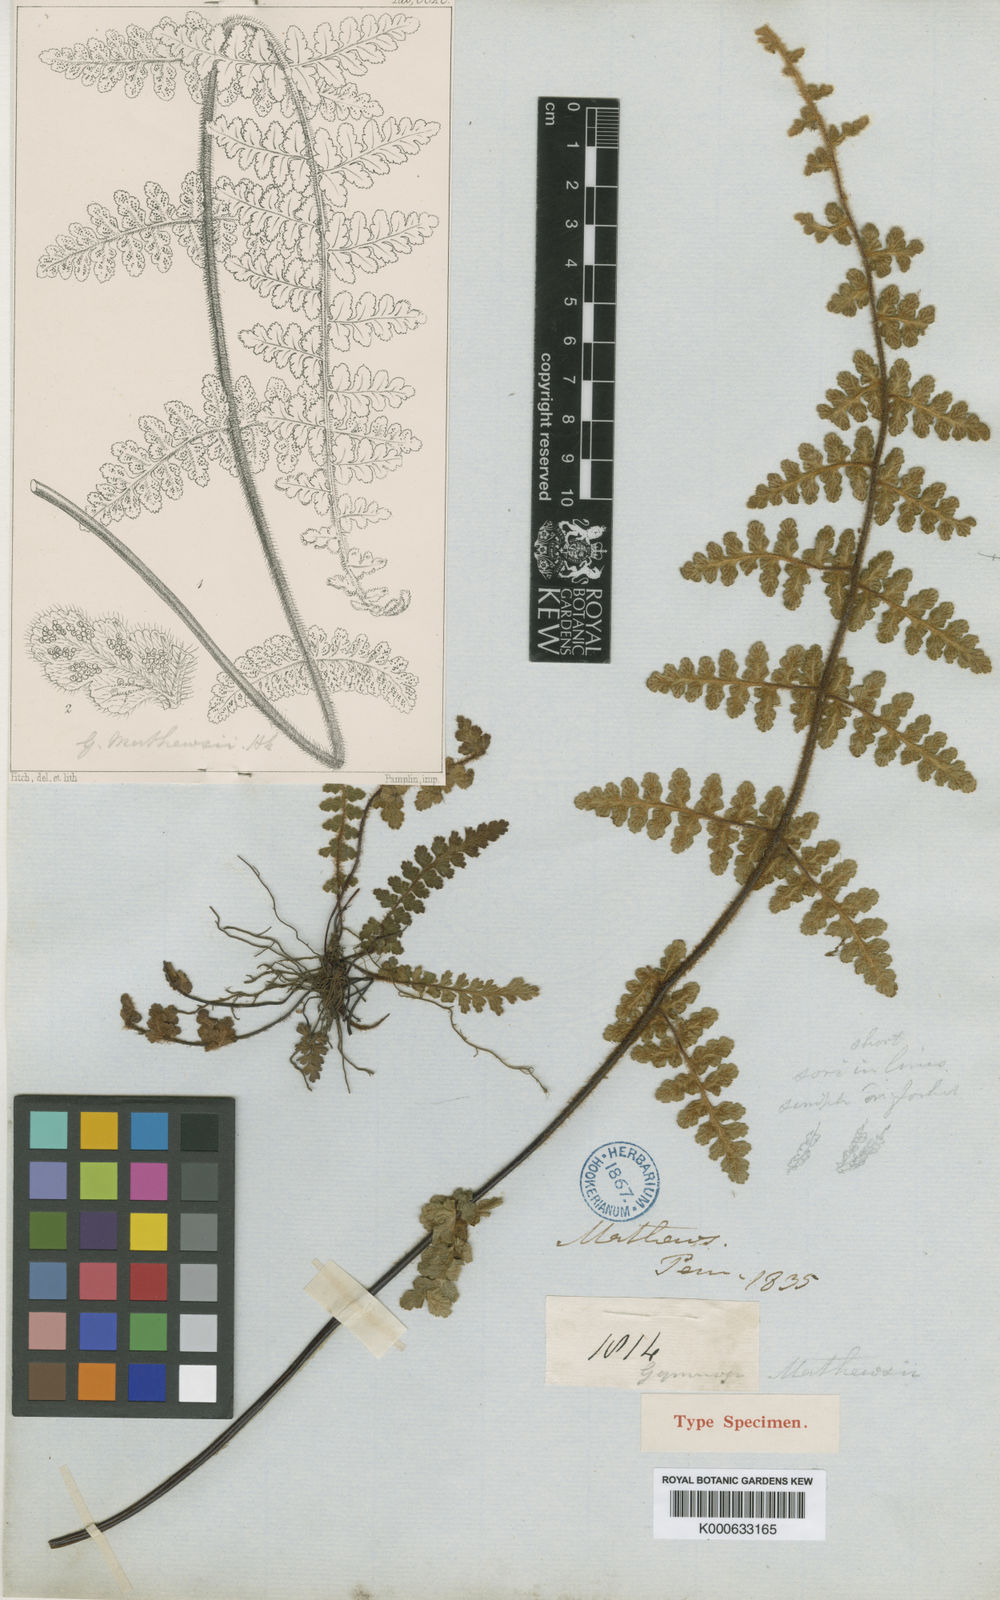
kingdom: Plantae
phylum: Tracheophyta
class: Polypodiopsida
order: Polypodiales
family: Pteridaceae
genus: Jamesonia
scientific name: Jamesonia
